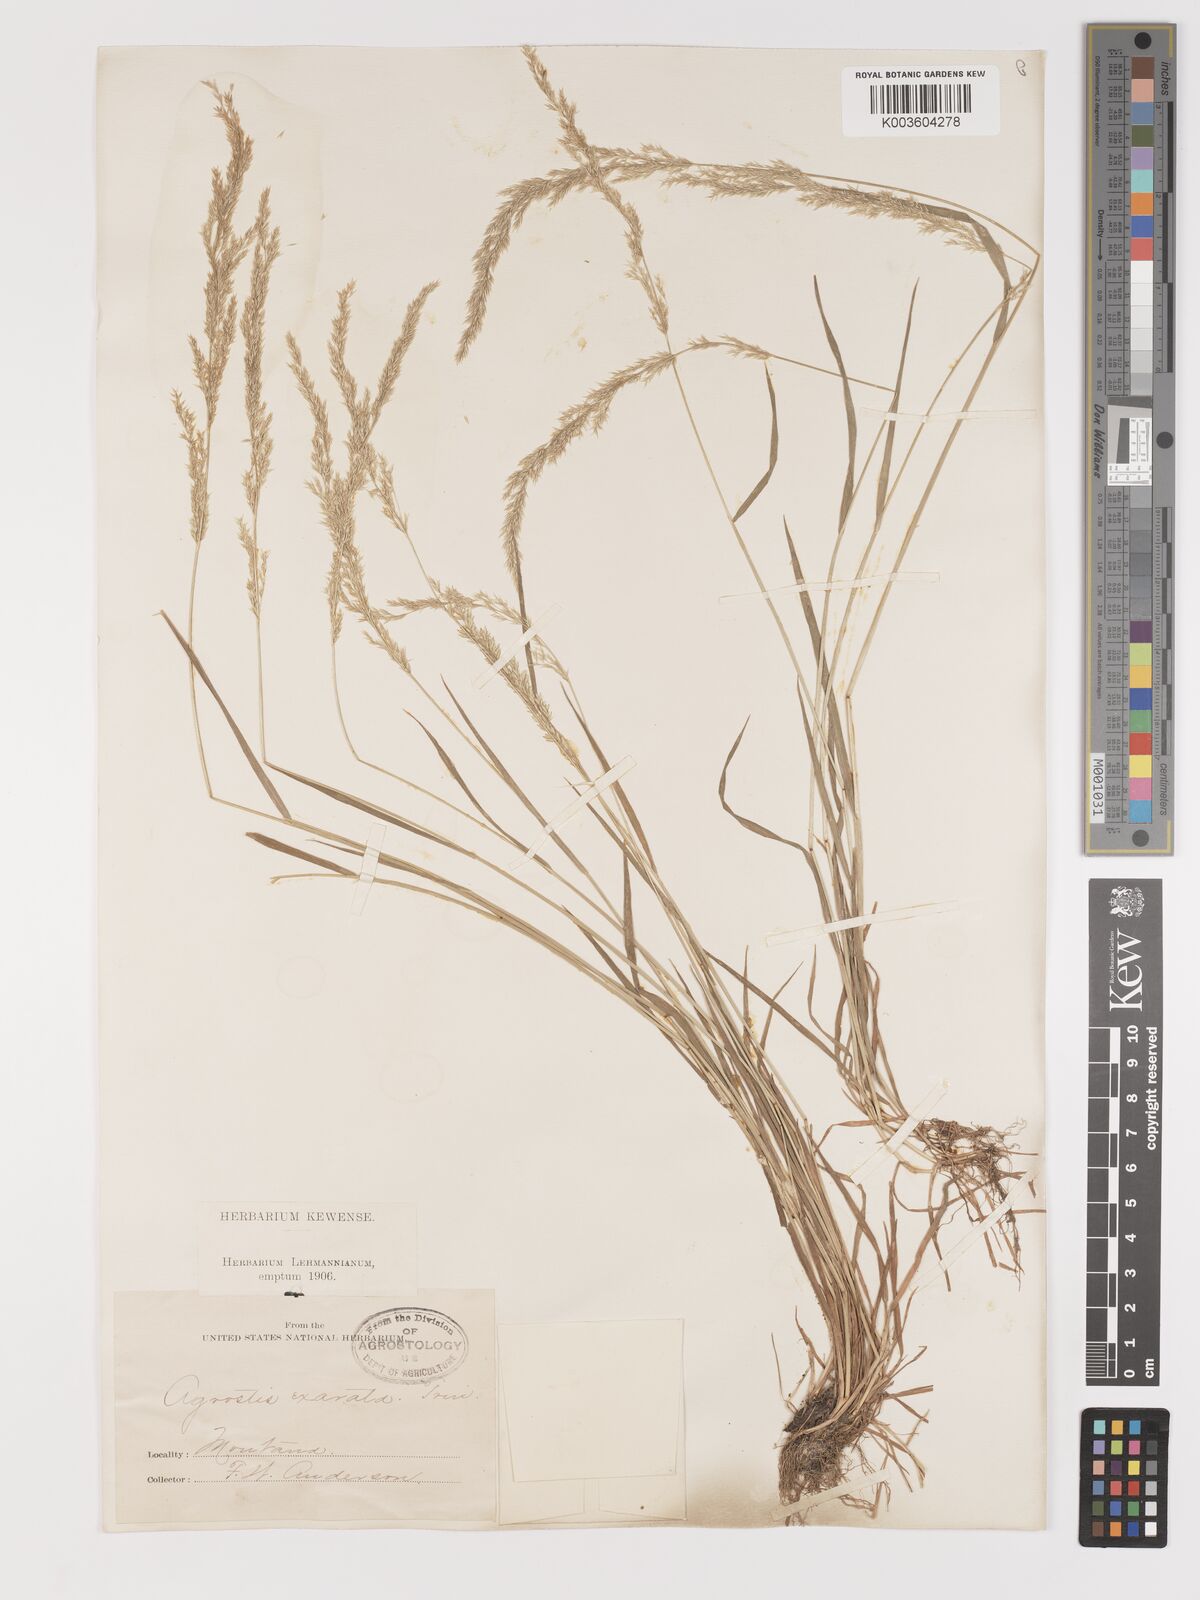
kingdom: Plantae
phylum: Tracheophyta
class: Liliopsida
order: Poales
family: Poaceae
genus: Agrostis
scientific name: Agrostis exarata
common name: Spike bent
